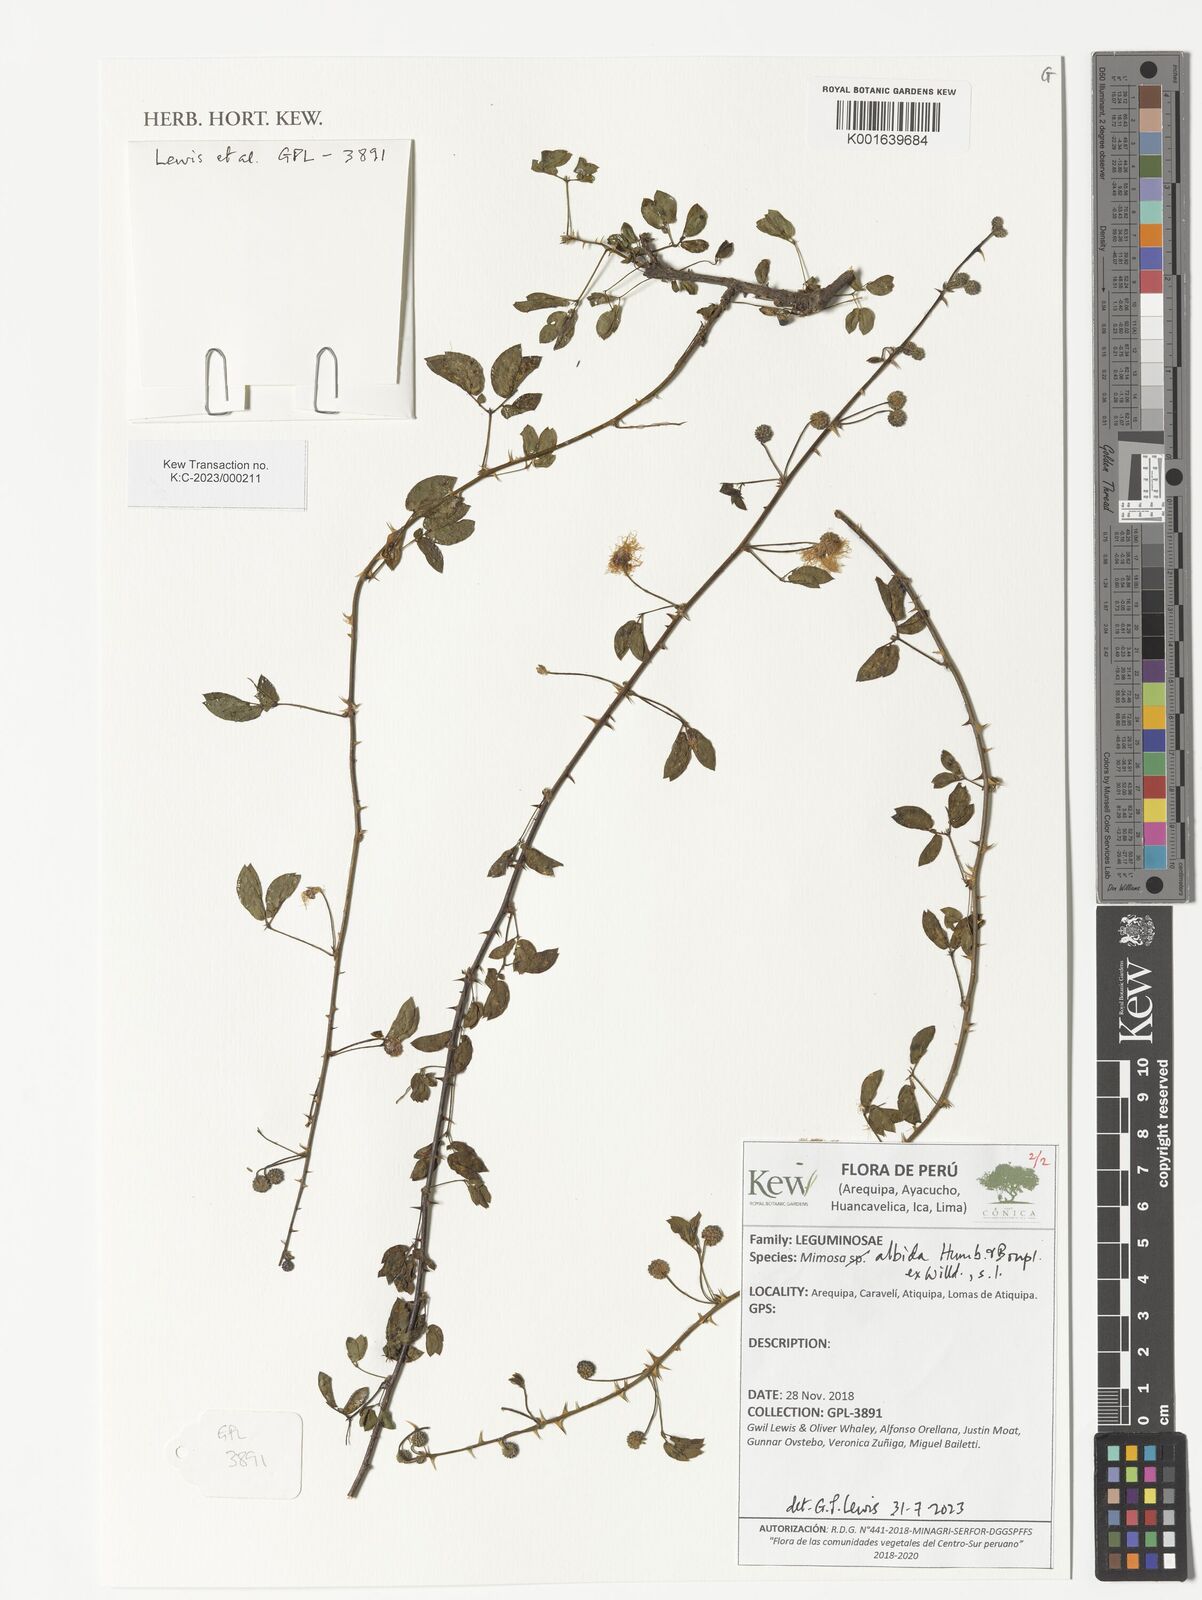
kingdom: Plantae
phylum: Tracheophyta
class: Magnoliopsida
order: Fabales
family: Fabaceae
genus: Mimosa
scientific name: Mimosa albida
